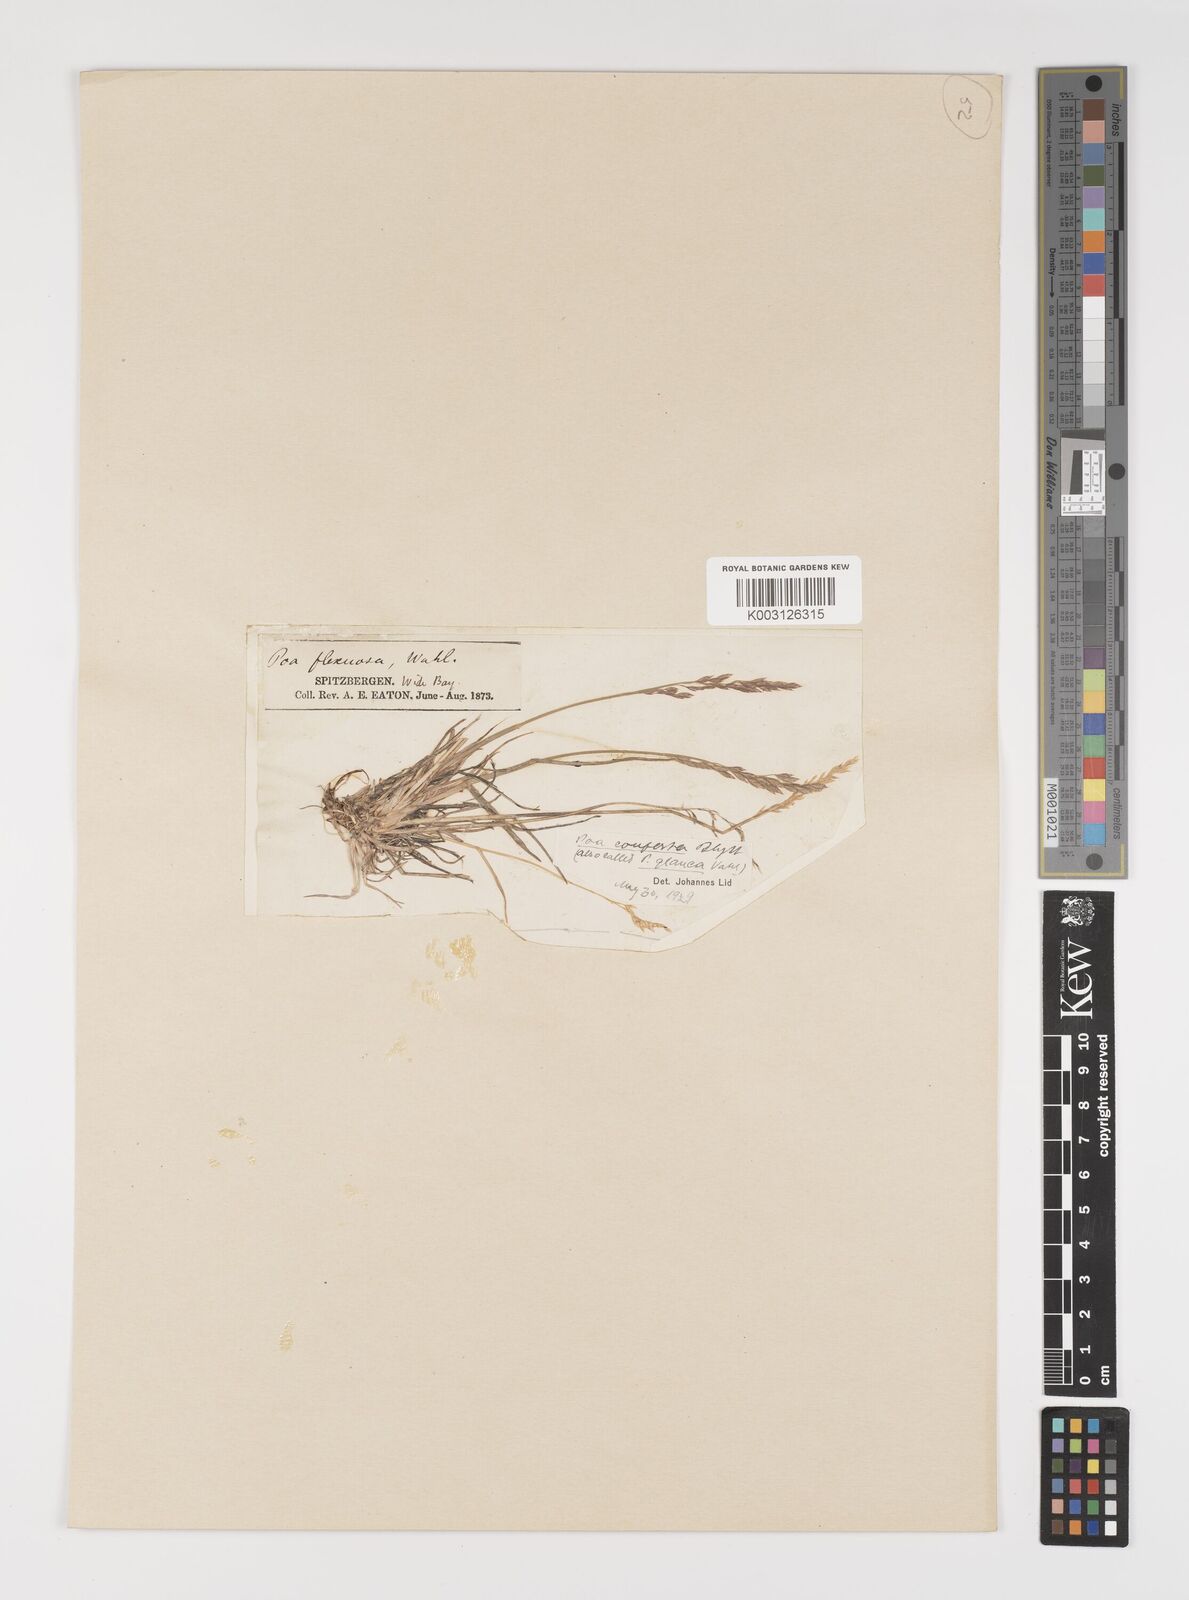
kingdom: Plantae
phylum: Tracheophyta
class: Liliopsida
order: Poales
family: Poaceae
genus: Poa
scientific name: Poa glauca
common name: Glaucous bluegrass
